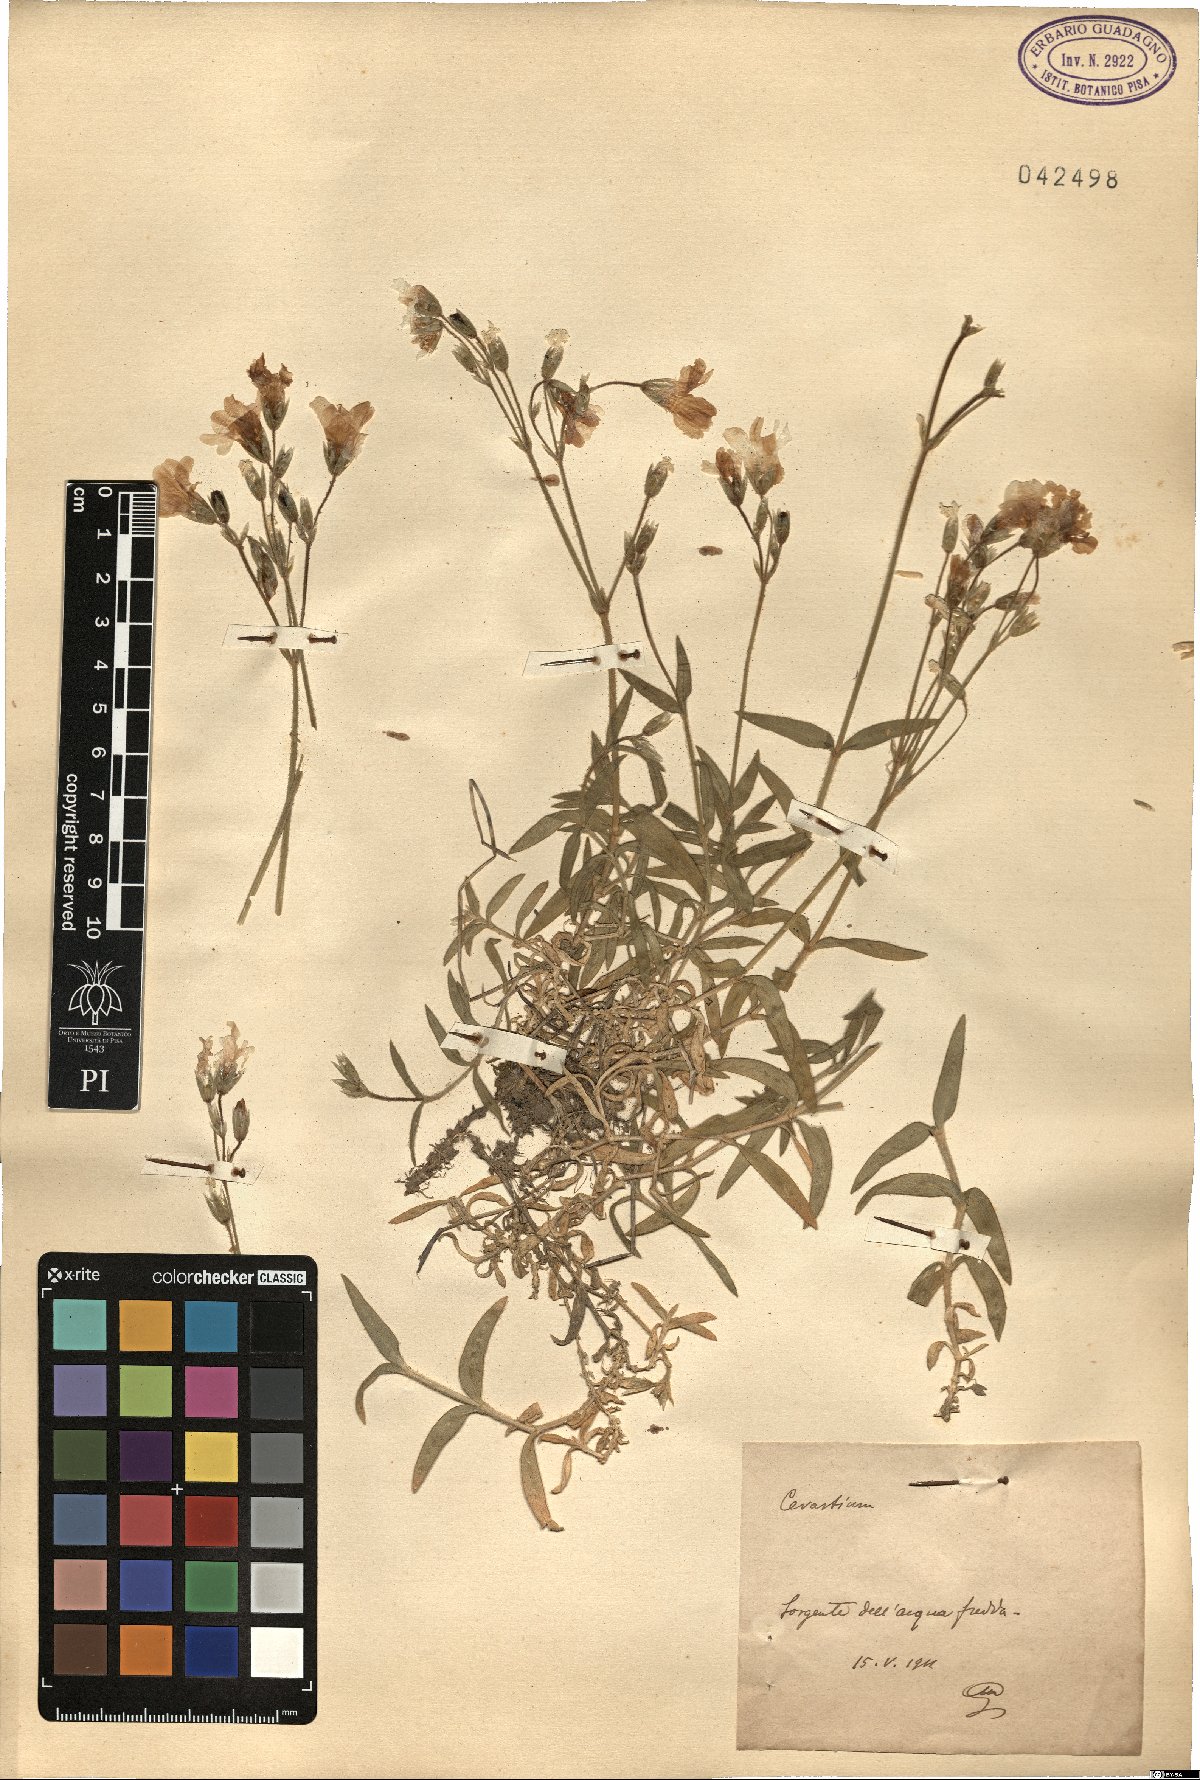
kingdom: Plantae
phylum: Tracheophyta
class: Magnoliopsida
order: Caryophyllales
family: Caryophyllaceae
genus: Cerastium
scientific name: Cerastium
